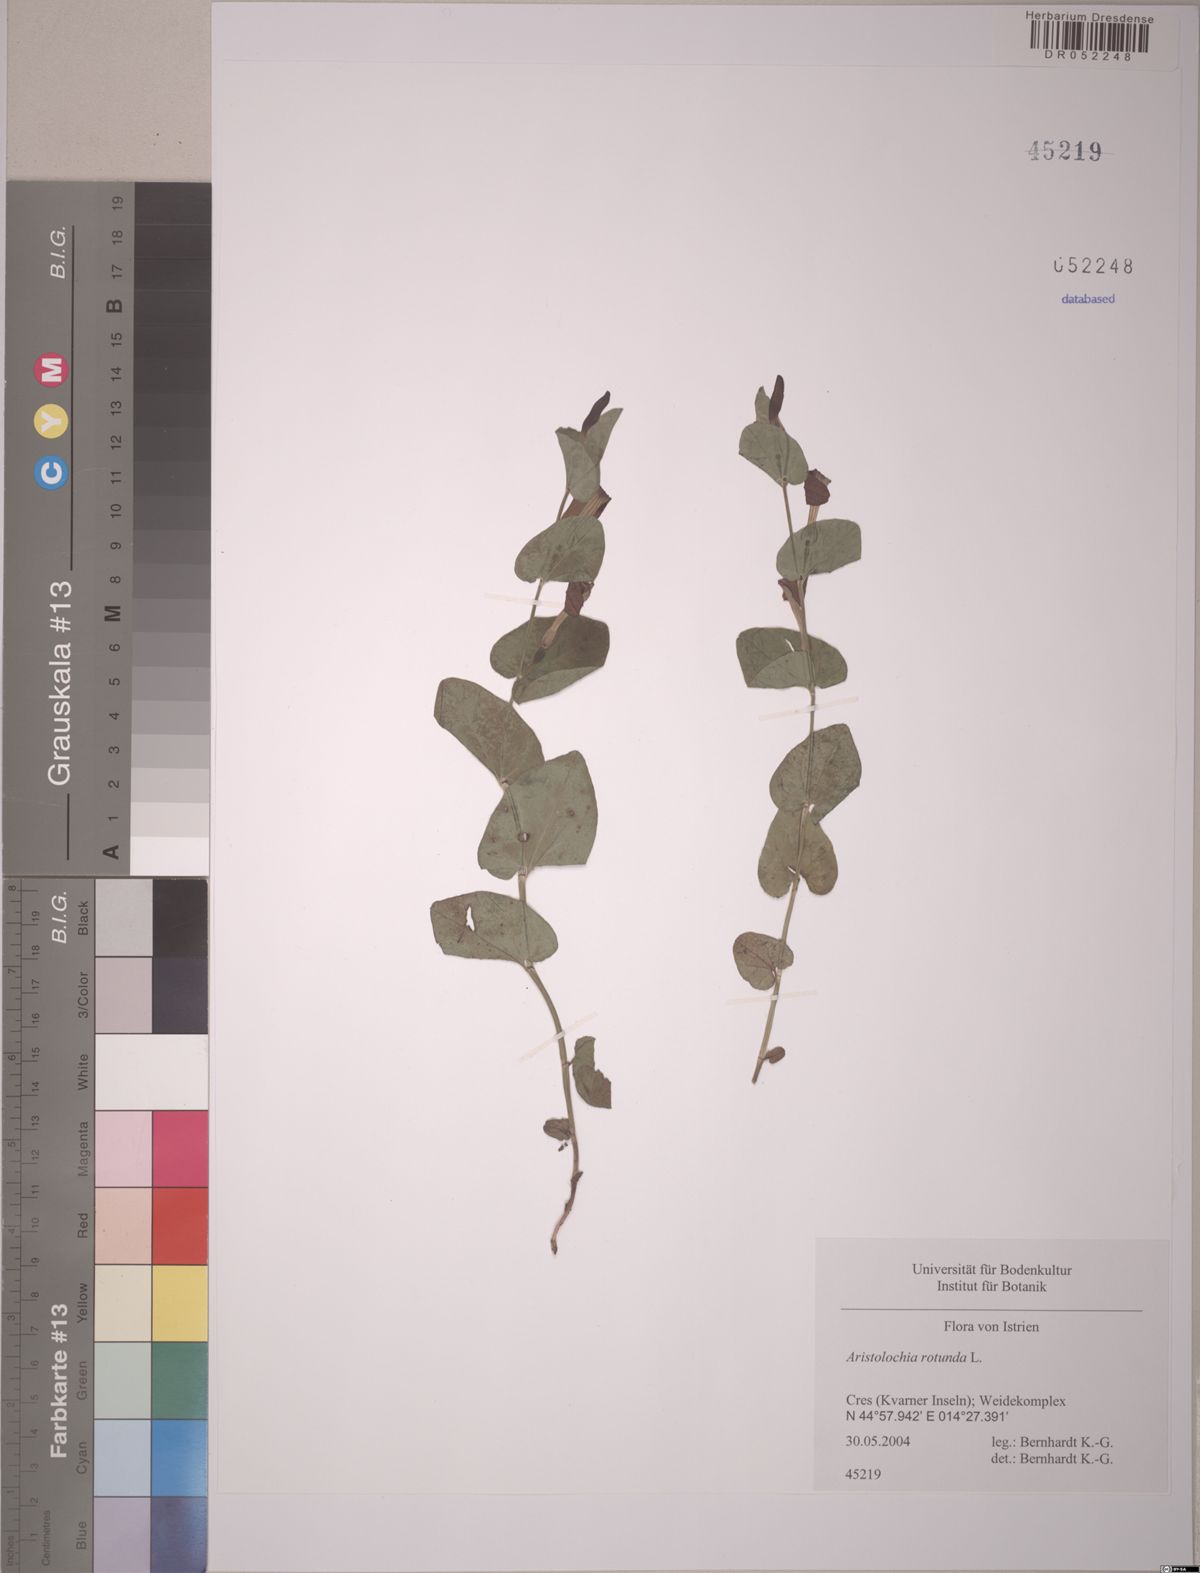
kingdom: Plantae
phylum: Tracheophyta
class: Magnoliopsida
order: Piperales
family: Aristolochiaceae
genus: Aristolochia
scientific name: Aristolochia rotunda
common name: Smearwort
